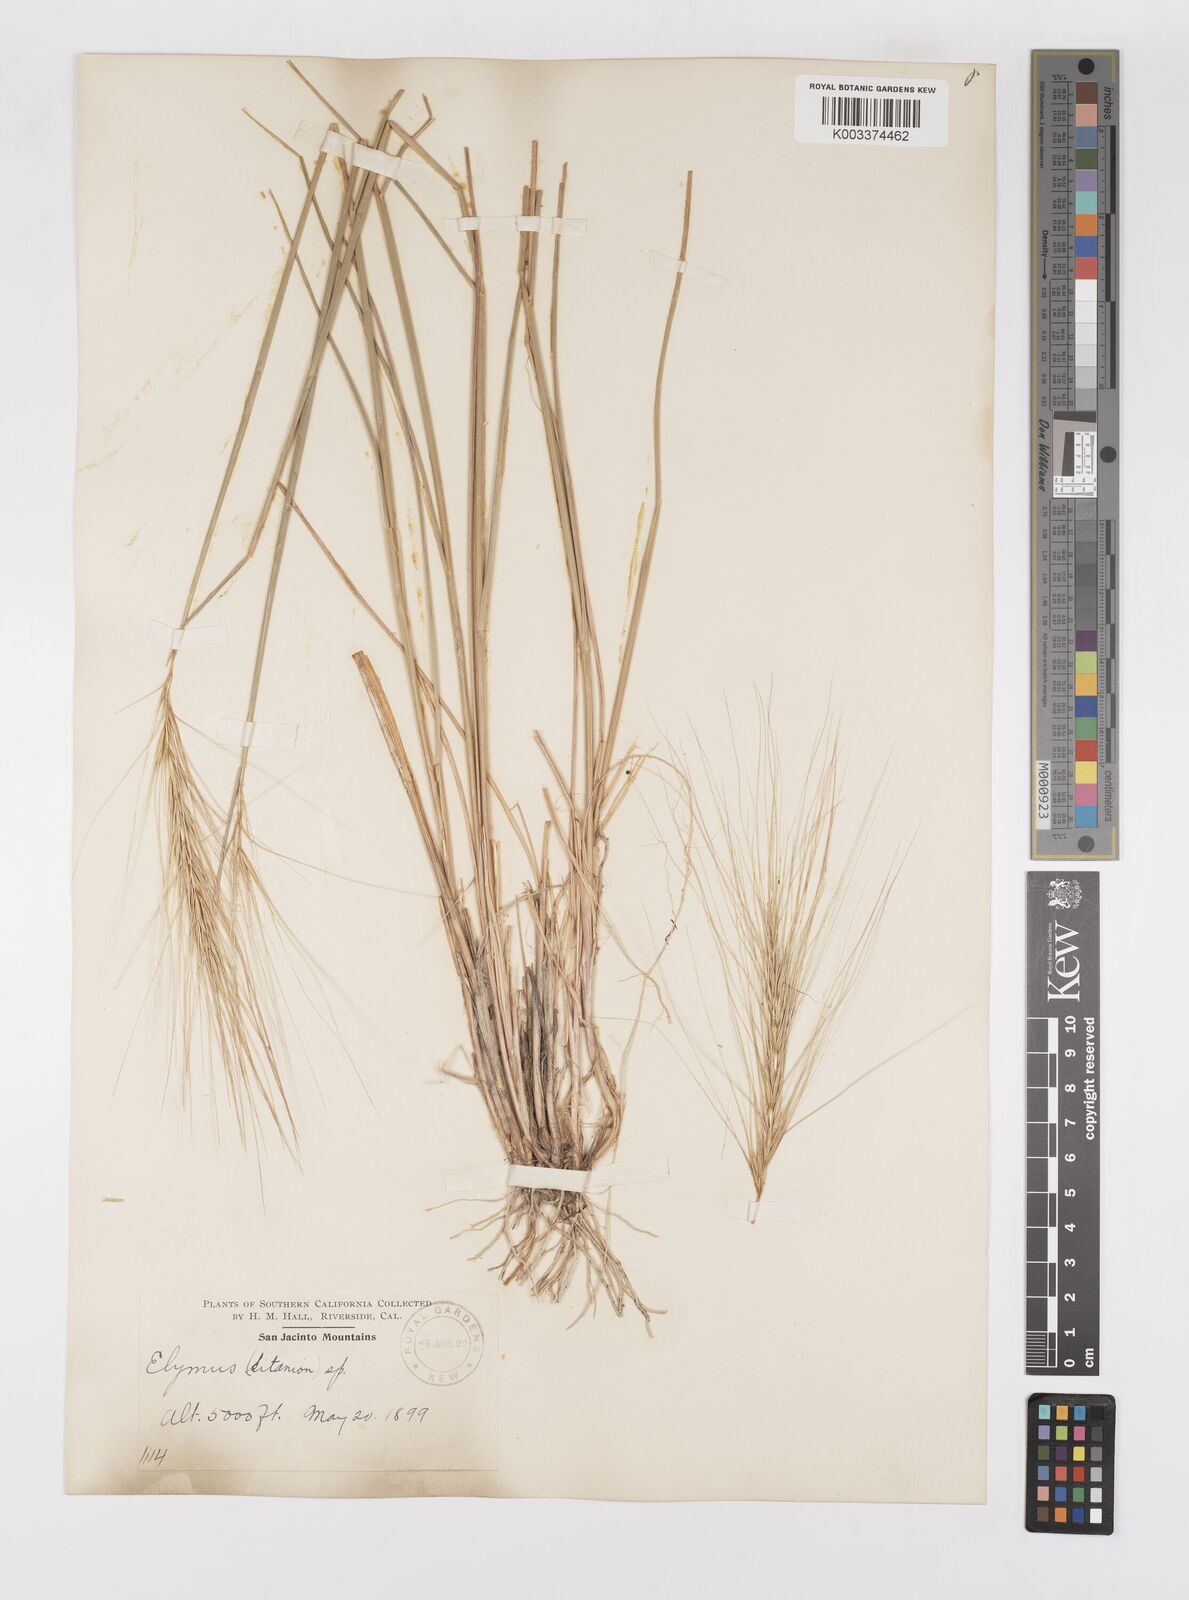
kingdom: Plantae
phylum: Tracheophyta
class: Liliopsida
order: Poales
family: Poaceae
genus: Elymus
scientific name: Elymus multisetus
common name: Big squirreltail
